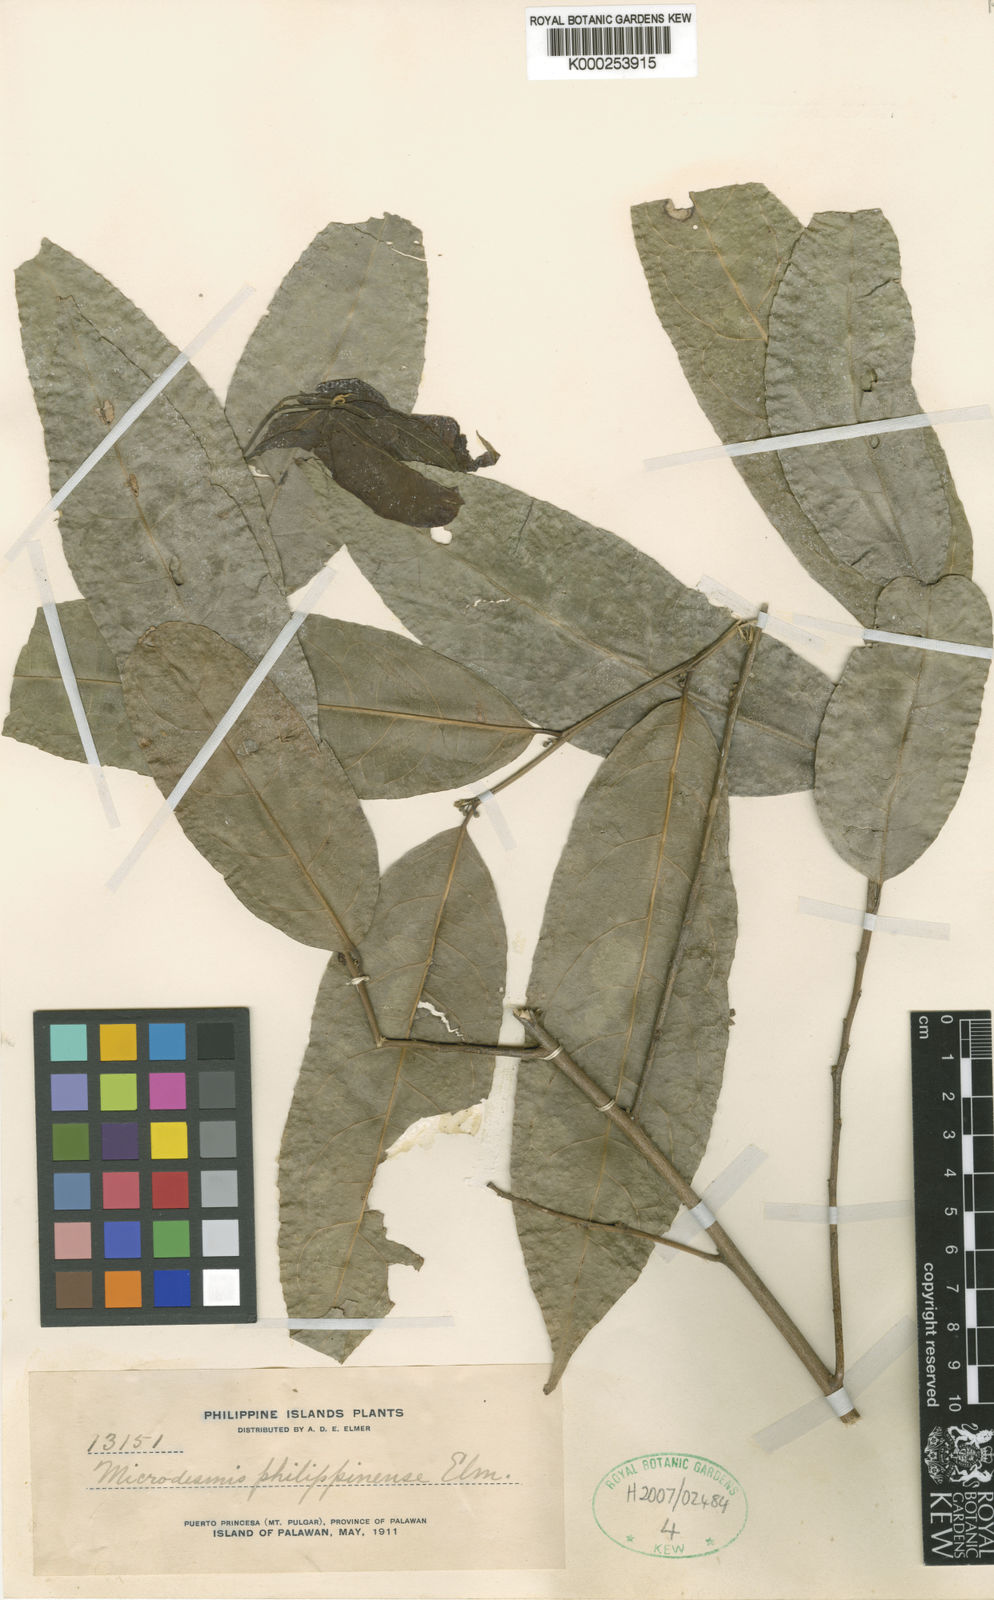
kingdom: Plantae
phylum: Tracheophyta
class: Magnoliopsida
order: Malpighiales
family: Pandaceae
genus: Microdesmis
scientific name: Microdesmis
